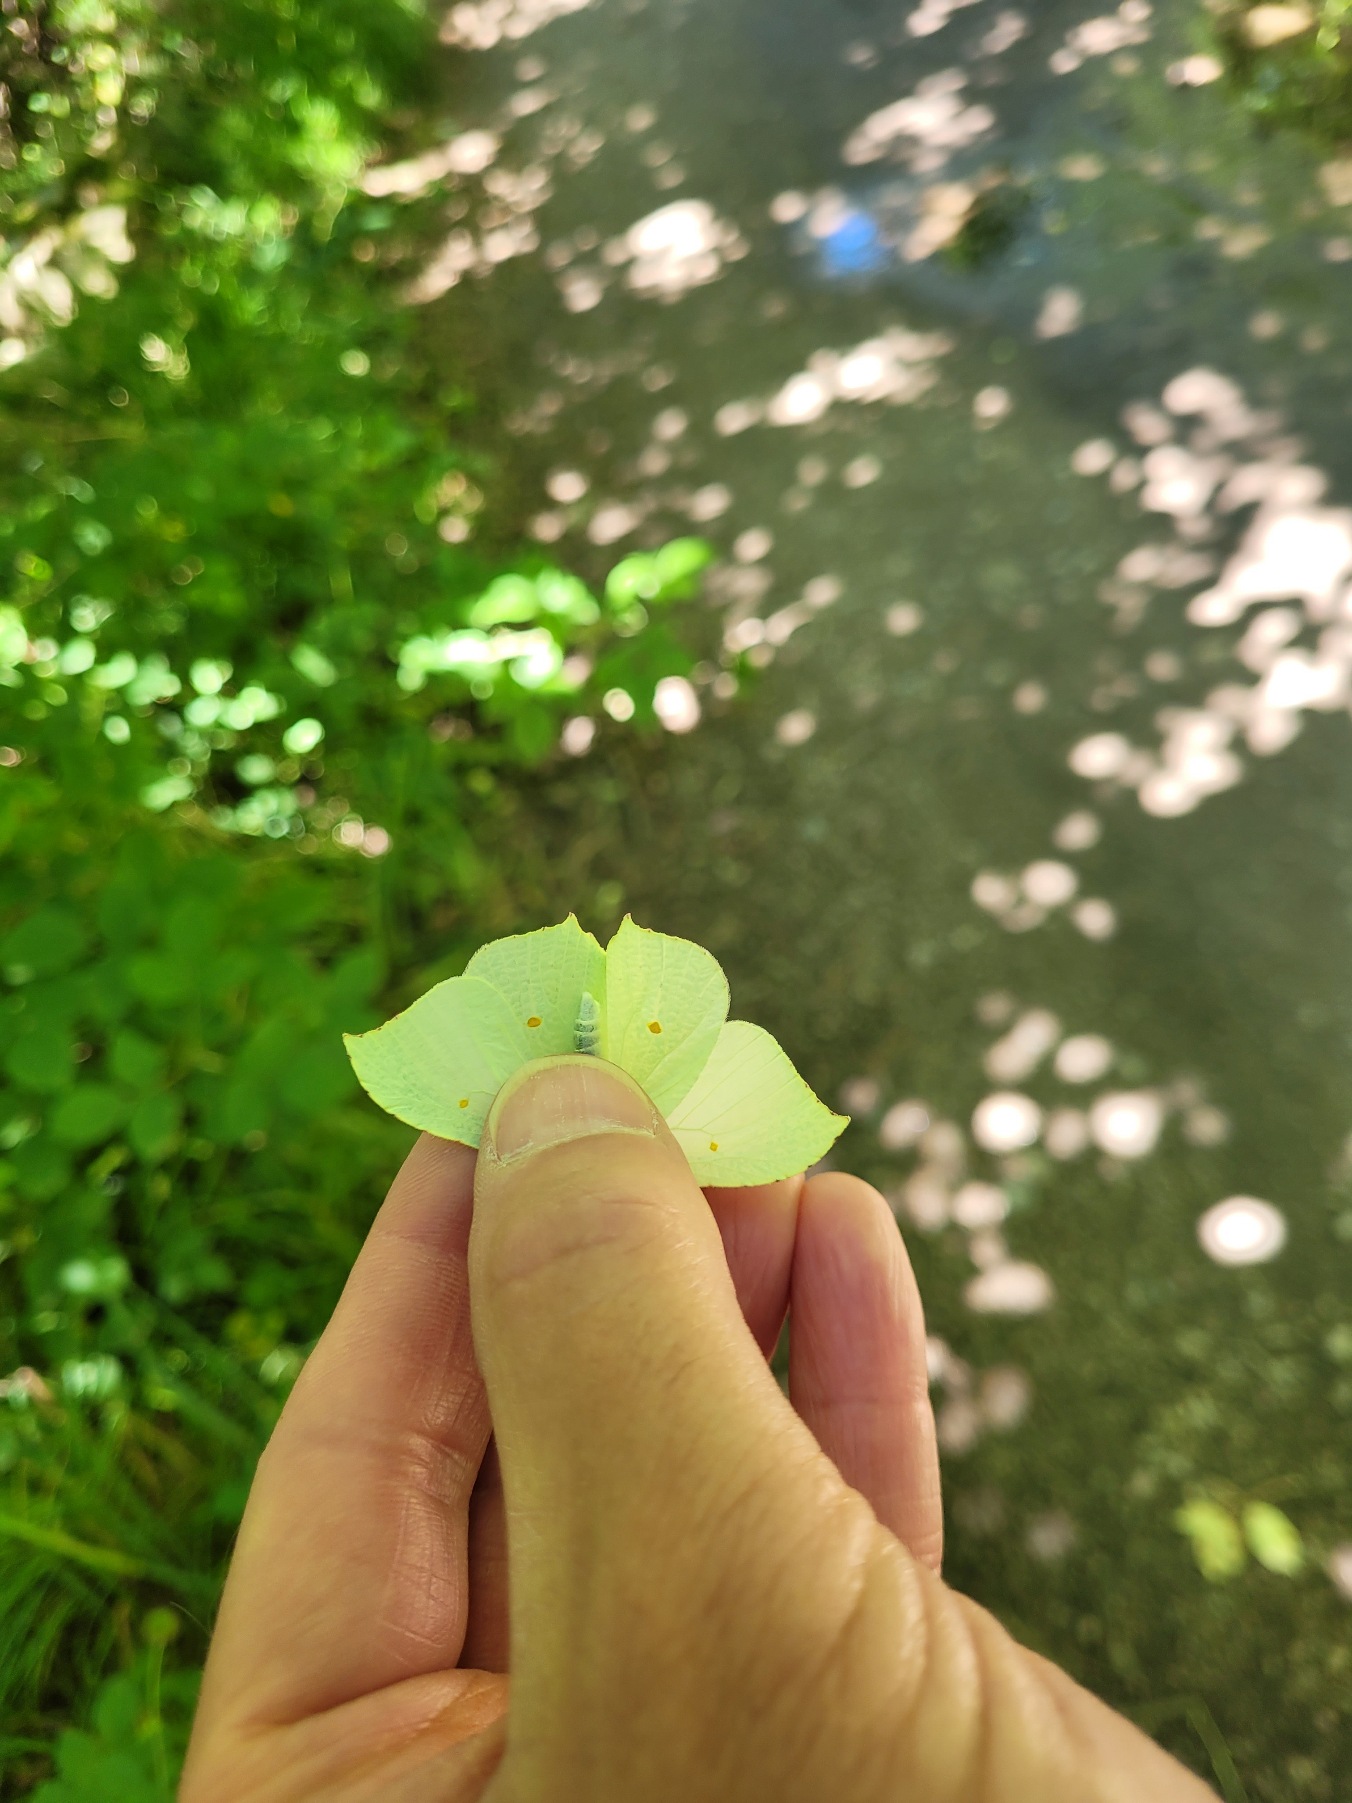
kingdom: Animalia
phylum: Arthropoda
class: Insecta
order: Lepidoptera
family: Pieridae
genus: Gonepteryx
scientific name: Gonepteryx rhamni
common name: Citronsommerfugl
